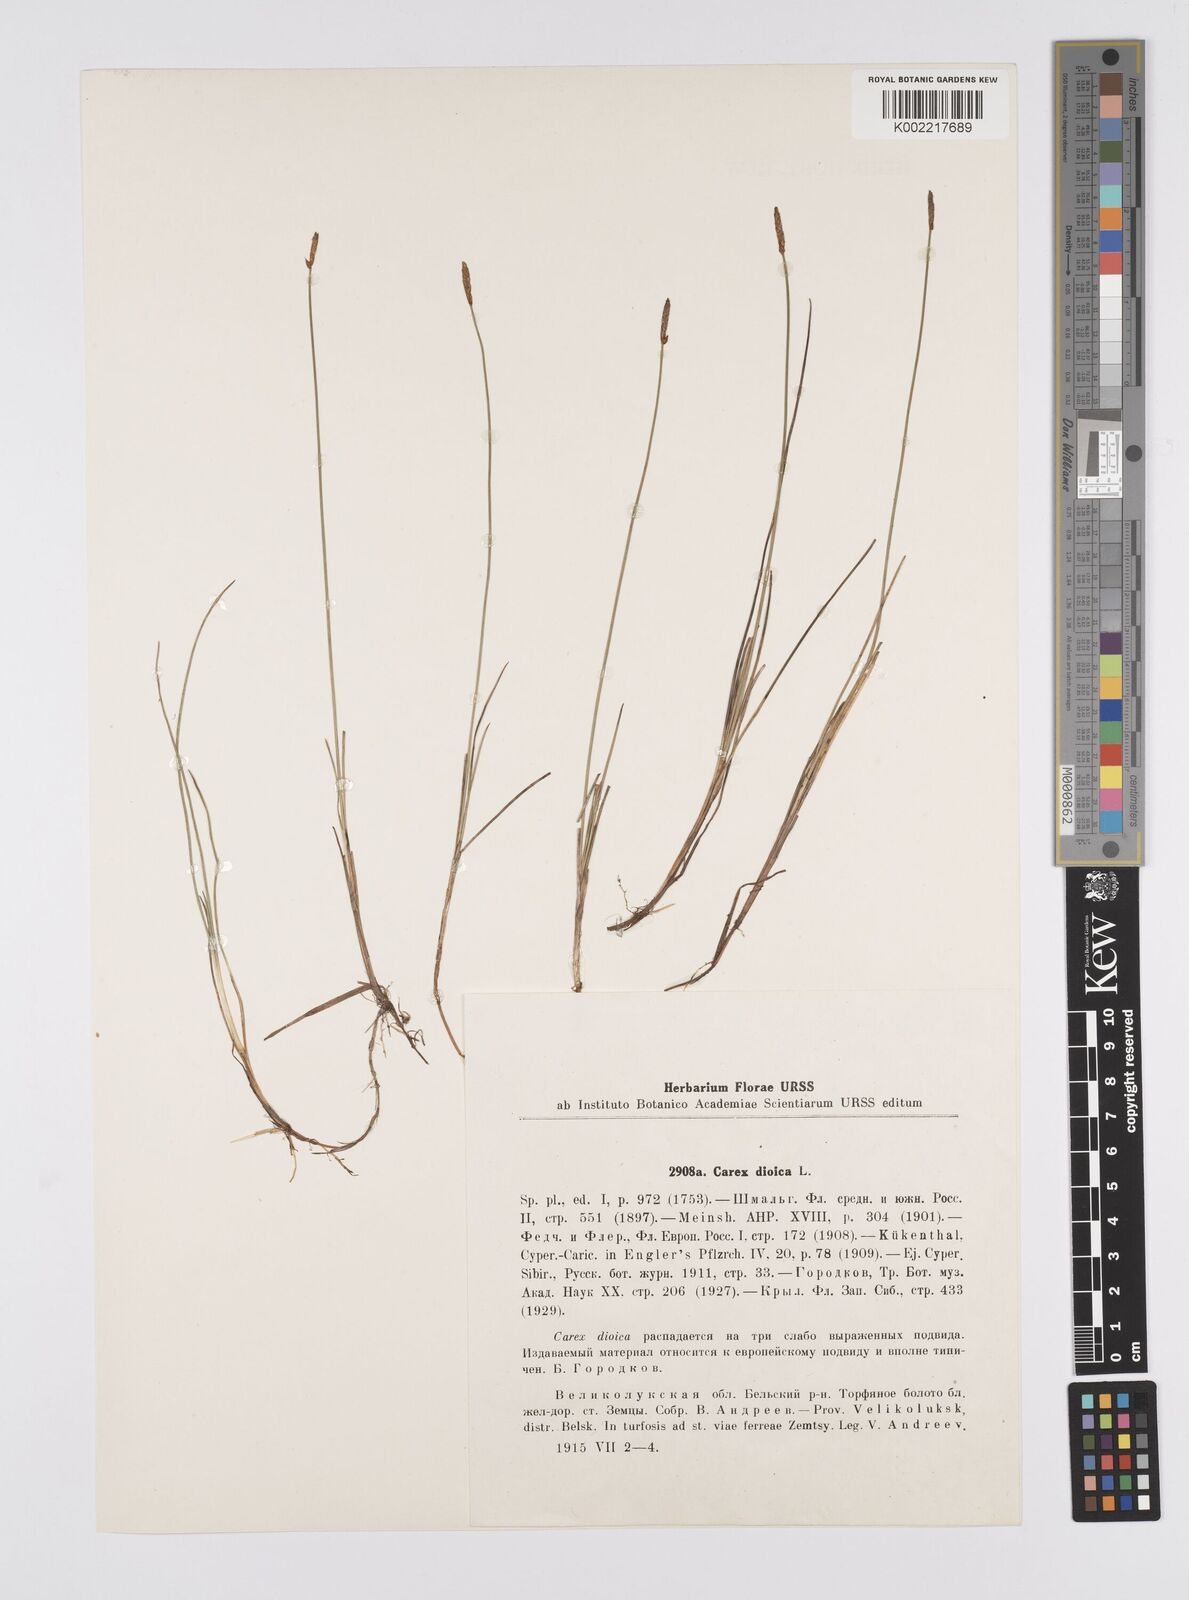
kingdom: Plantae
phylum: Tracheophyta
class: Liliopsida
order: Poales
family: Cyperaceae
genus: Carex
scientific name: Carex dioica
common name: Dioecious sedge
